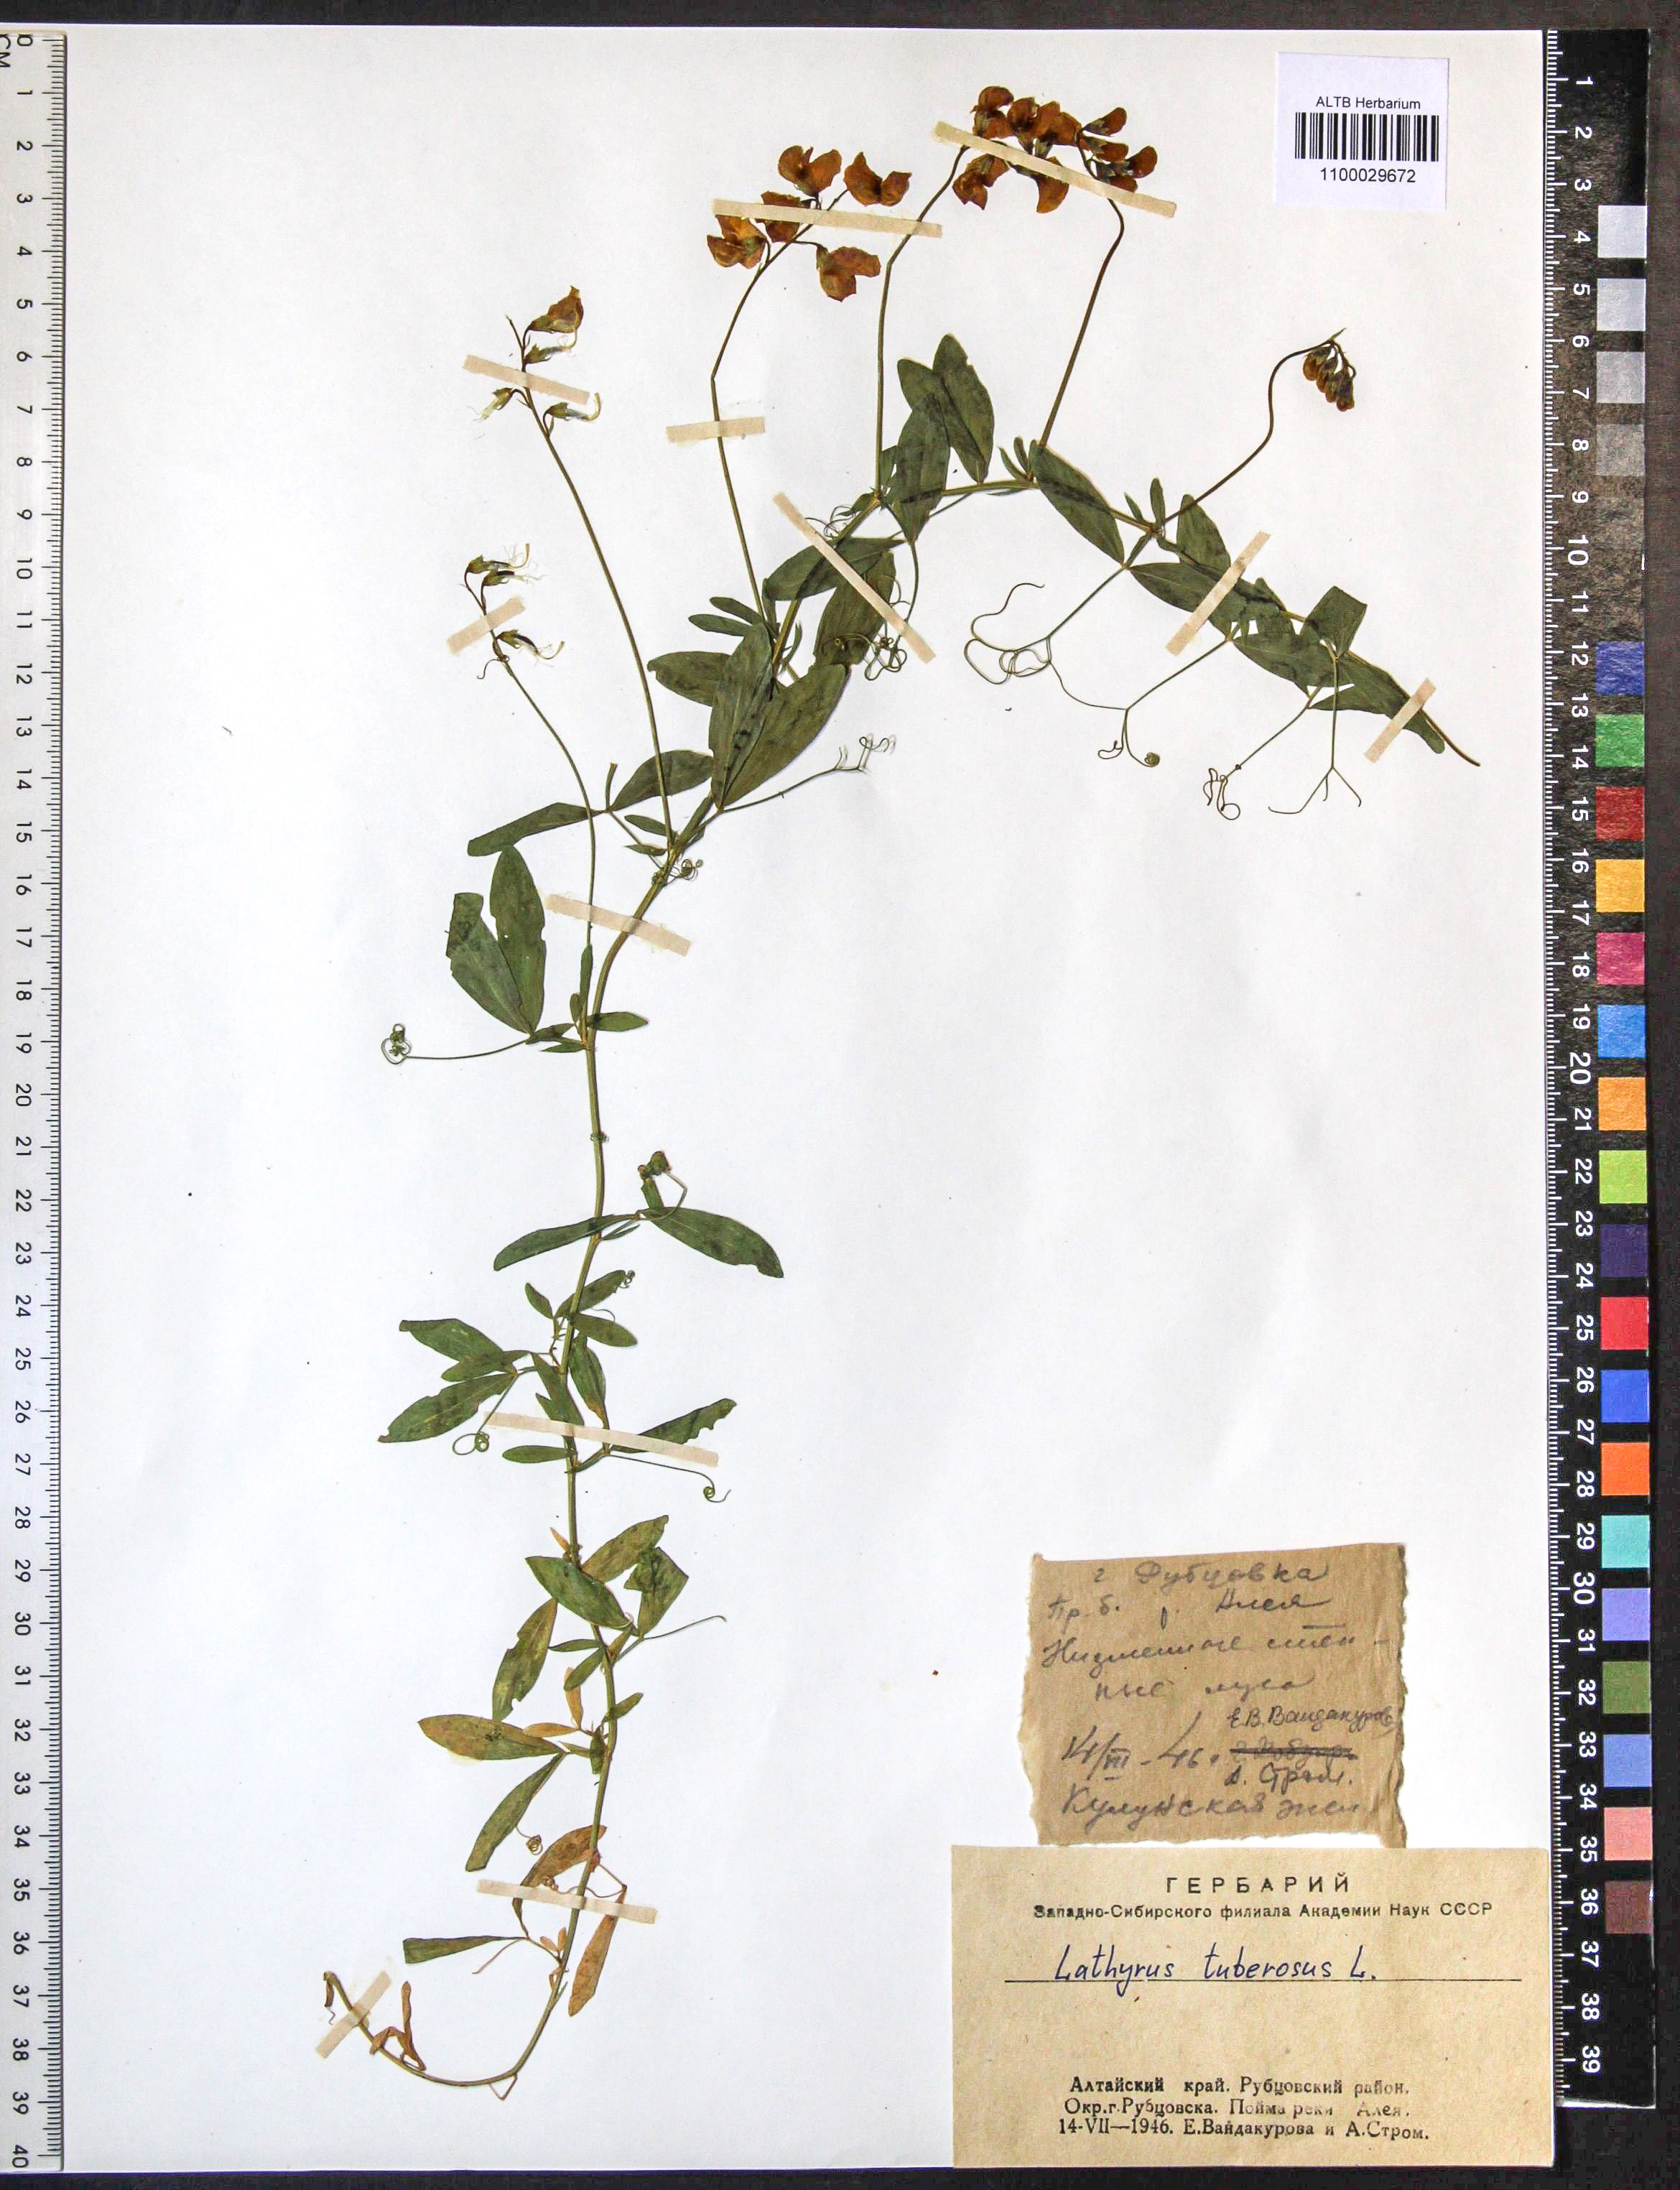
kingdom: Plantae
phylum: Tracheophyta
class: Magnoliopsida
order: Fabales
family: Fabaceae
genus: Lathyrus
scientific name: Lathyrus tuberosus
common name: Tuberous pea
